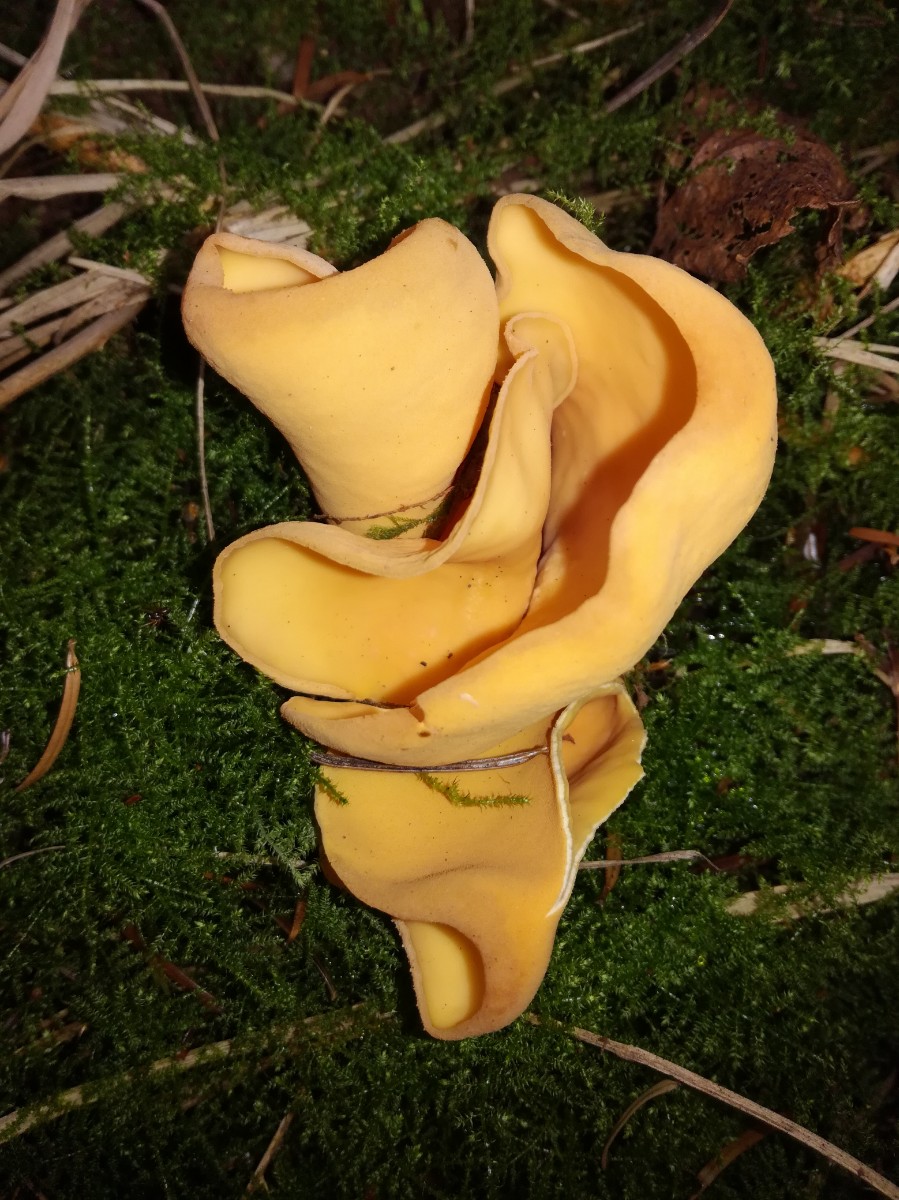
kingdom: Fungi
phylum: Ascomycota
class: Pezizomycetes
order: Pezizales
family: Otideaceae
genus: Otidea
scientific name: Otidea onotica
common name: æsel-ørebæger
